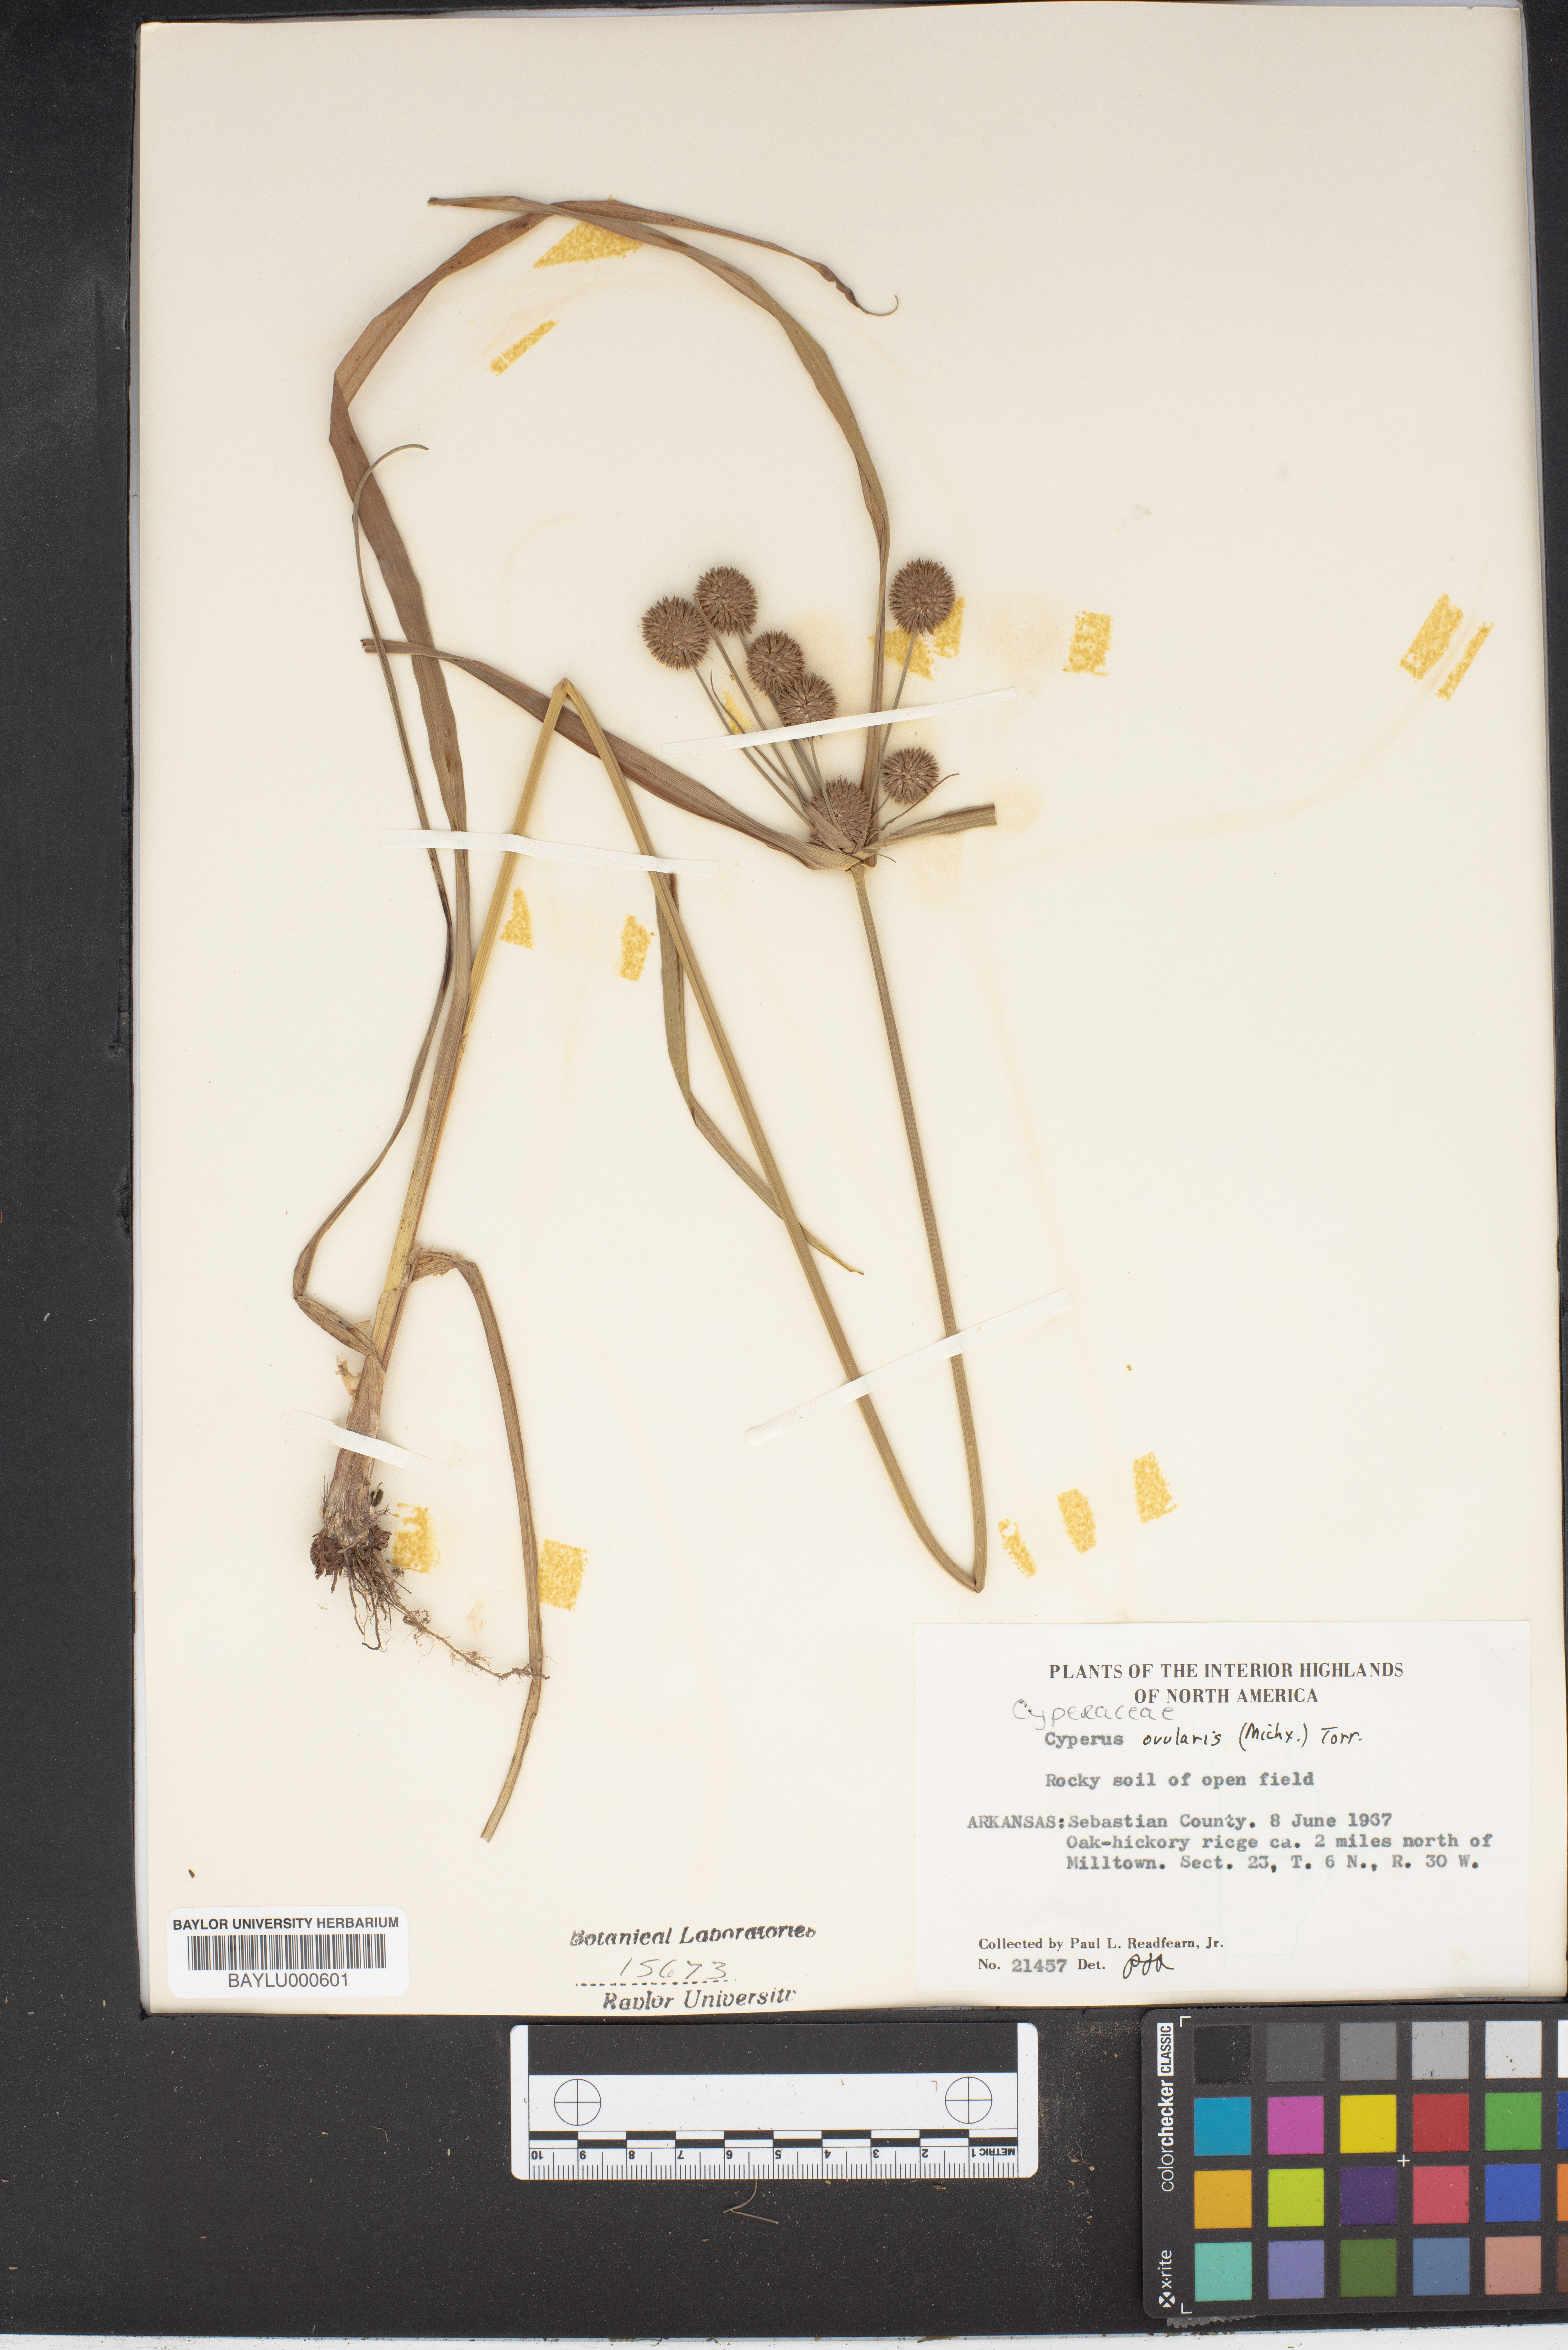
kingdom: Plantae
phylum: Tracheophyta
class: Liliopsida
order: Poales
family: Cyperaceae
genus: Cyperus
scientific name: Cyperus echinatus
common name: Teasel sedge
